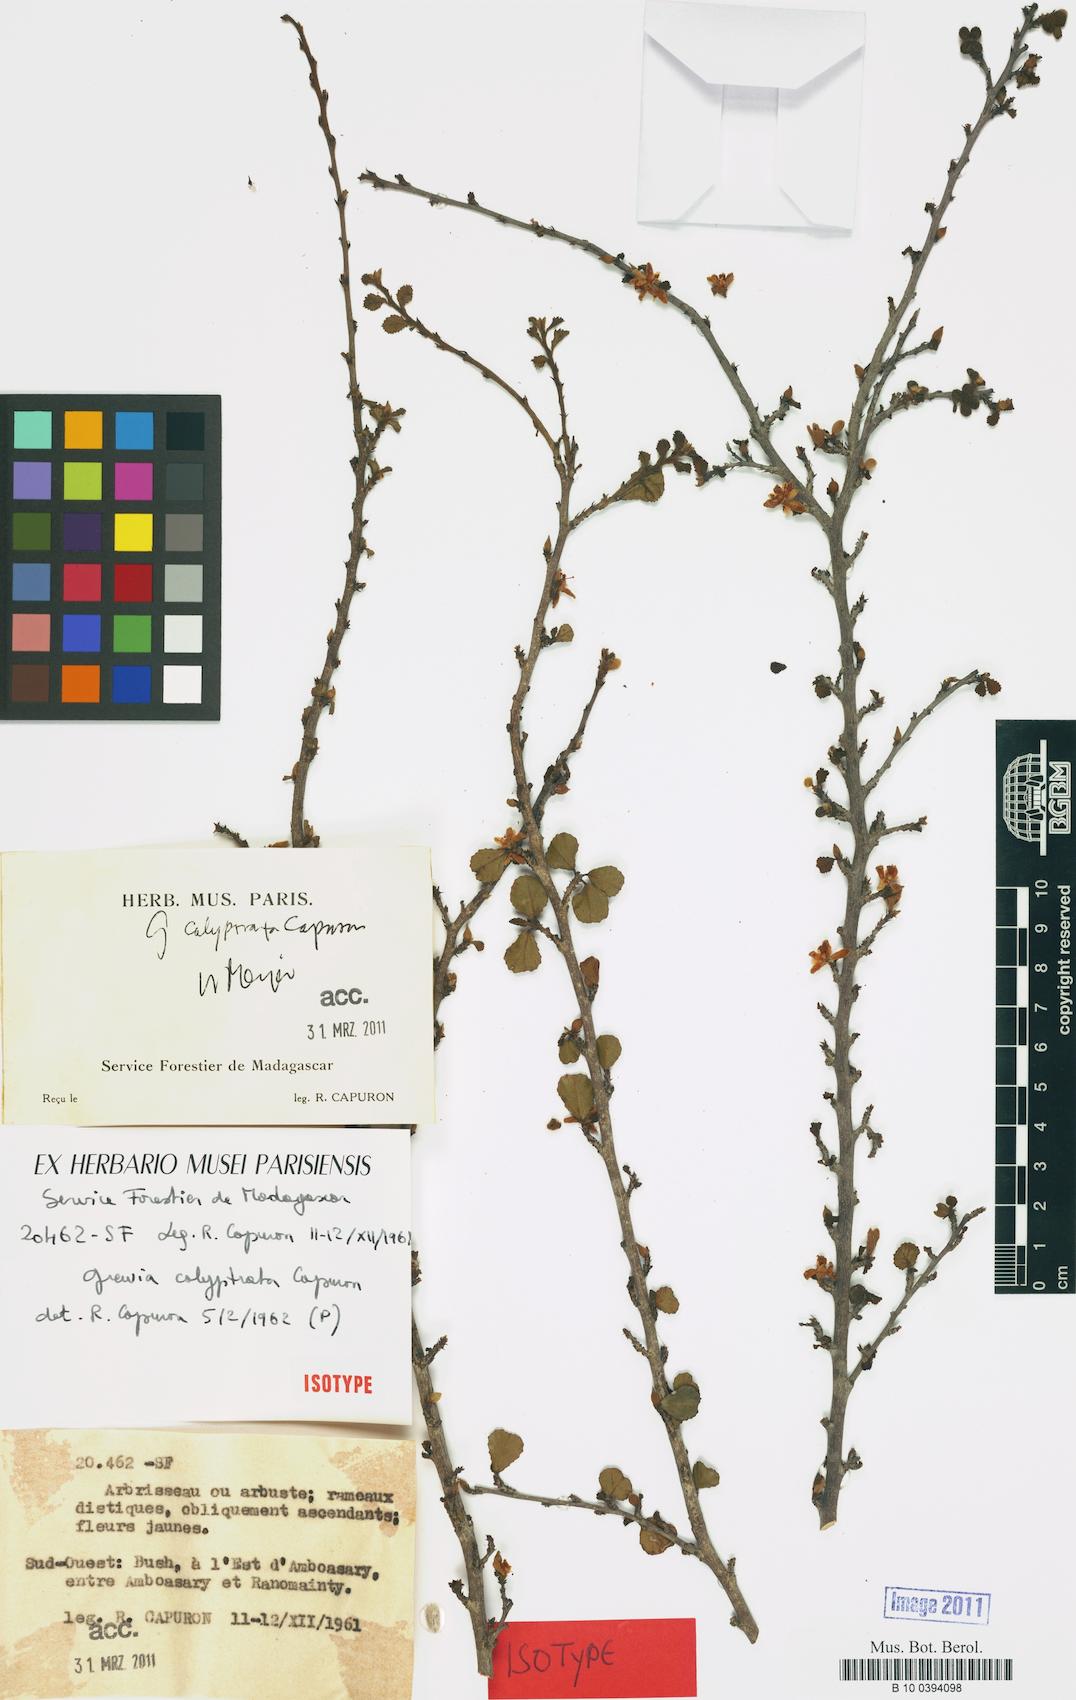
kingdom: Plantae
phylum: Tracheophyta
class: Magnoliopsida
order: Malvales
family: Malvaceae
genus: Grewia
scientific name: Grewia
